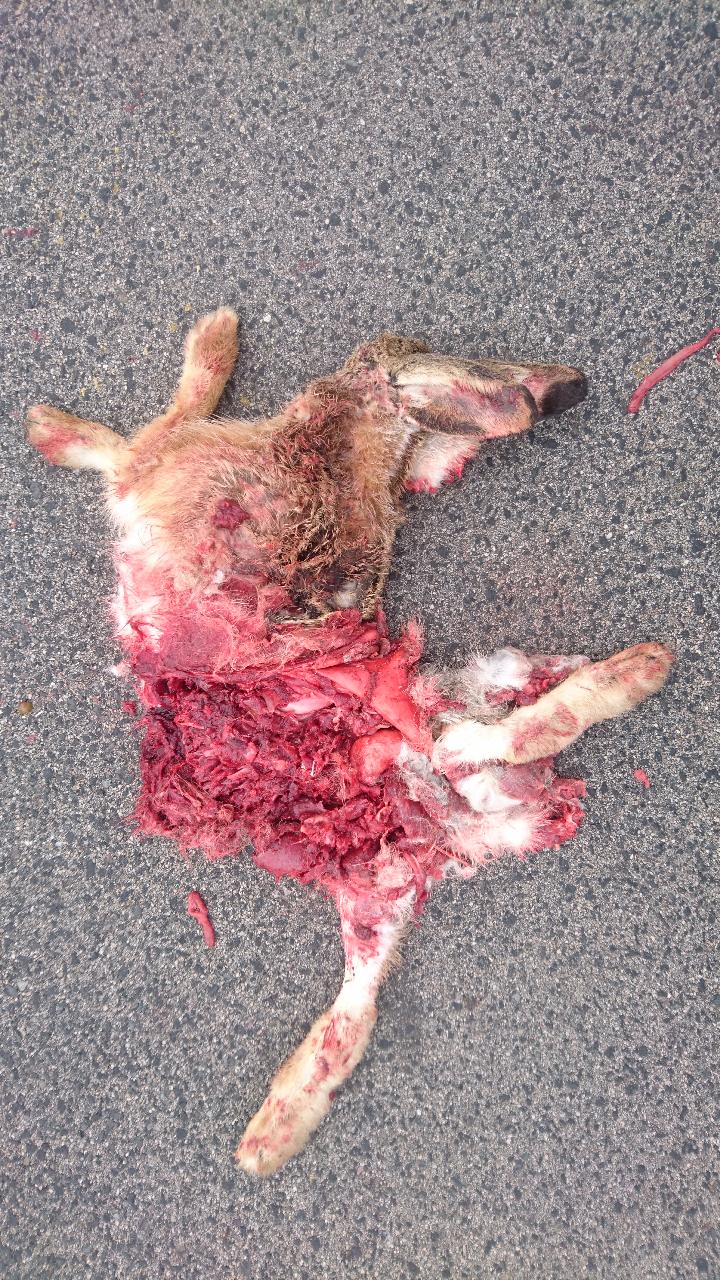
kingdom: Animalia
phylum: Chordata
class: Mammalia
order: Lagomorpha
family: Leporidae
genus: Lepus
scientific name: Lepus europaeus
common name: European hare
